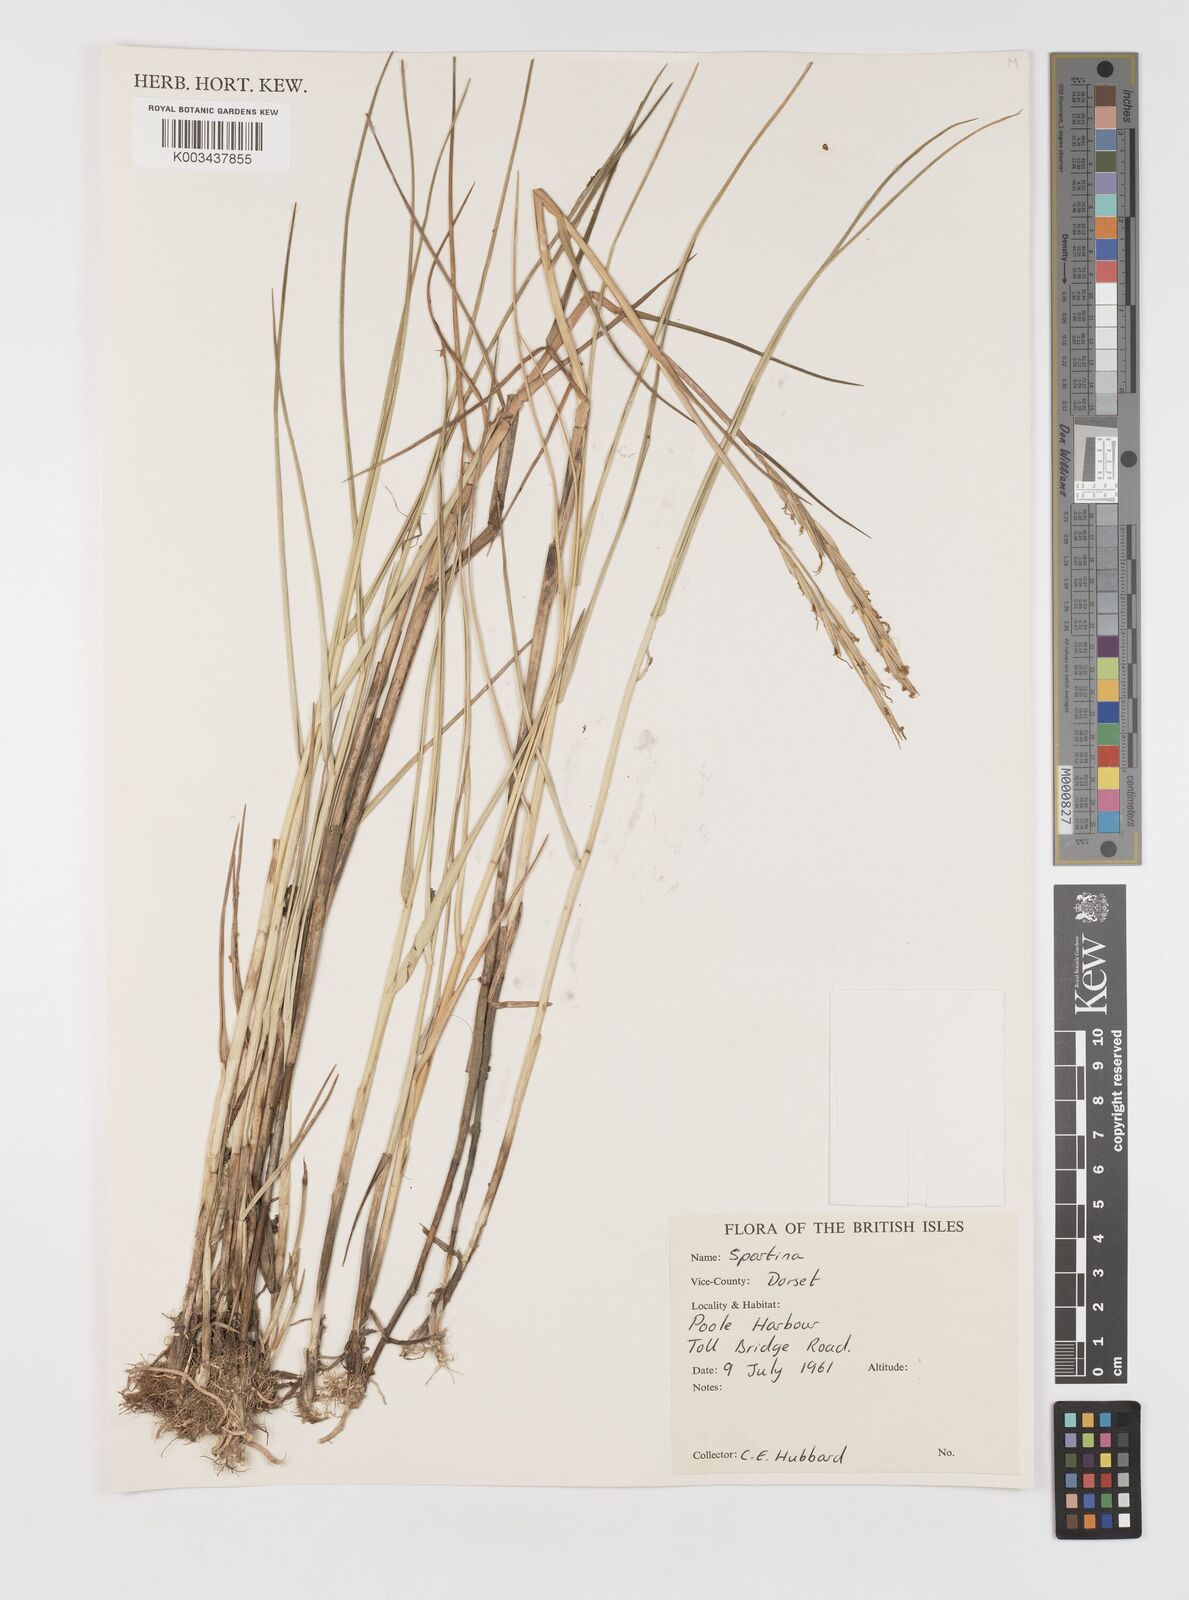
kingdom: Animalia
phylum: Mollusca
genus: Spartina
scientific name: Spartina
